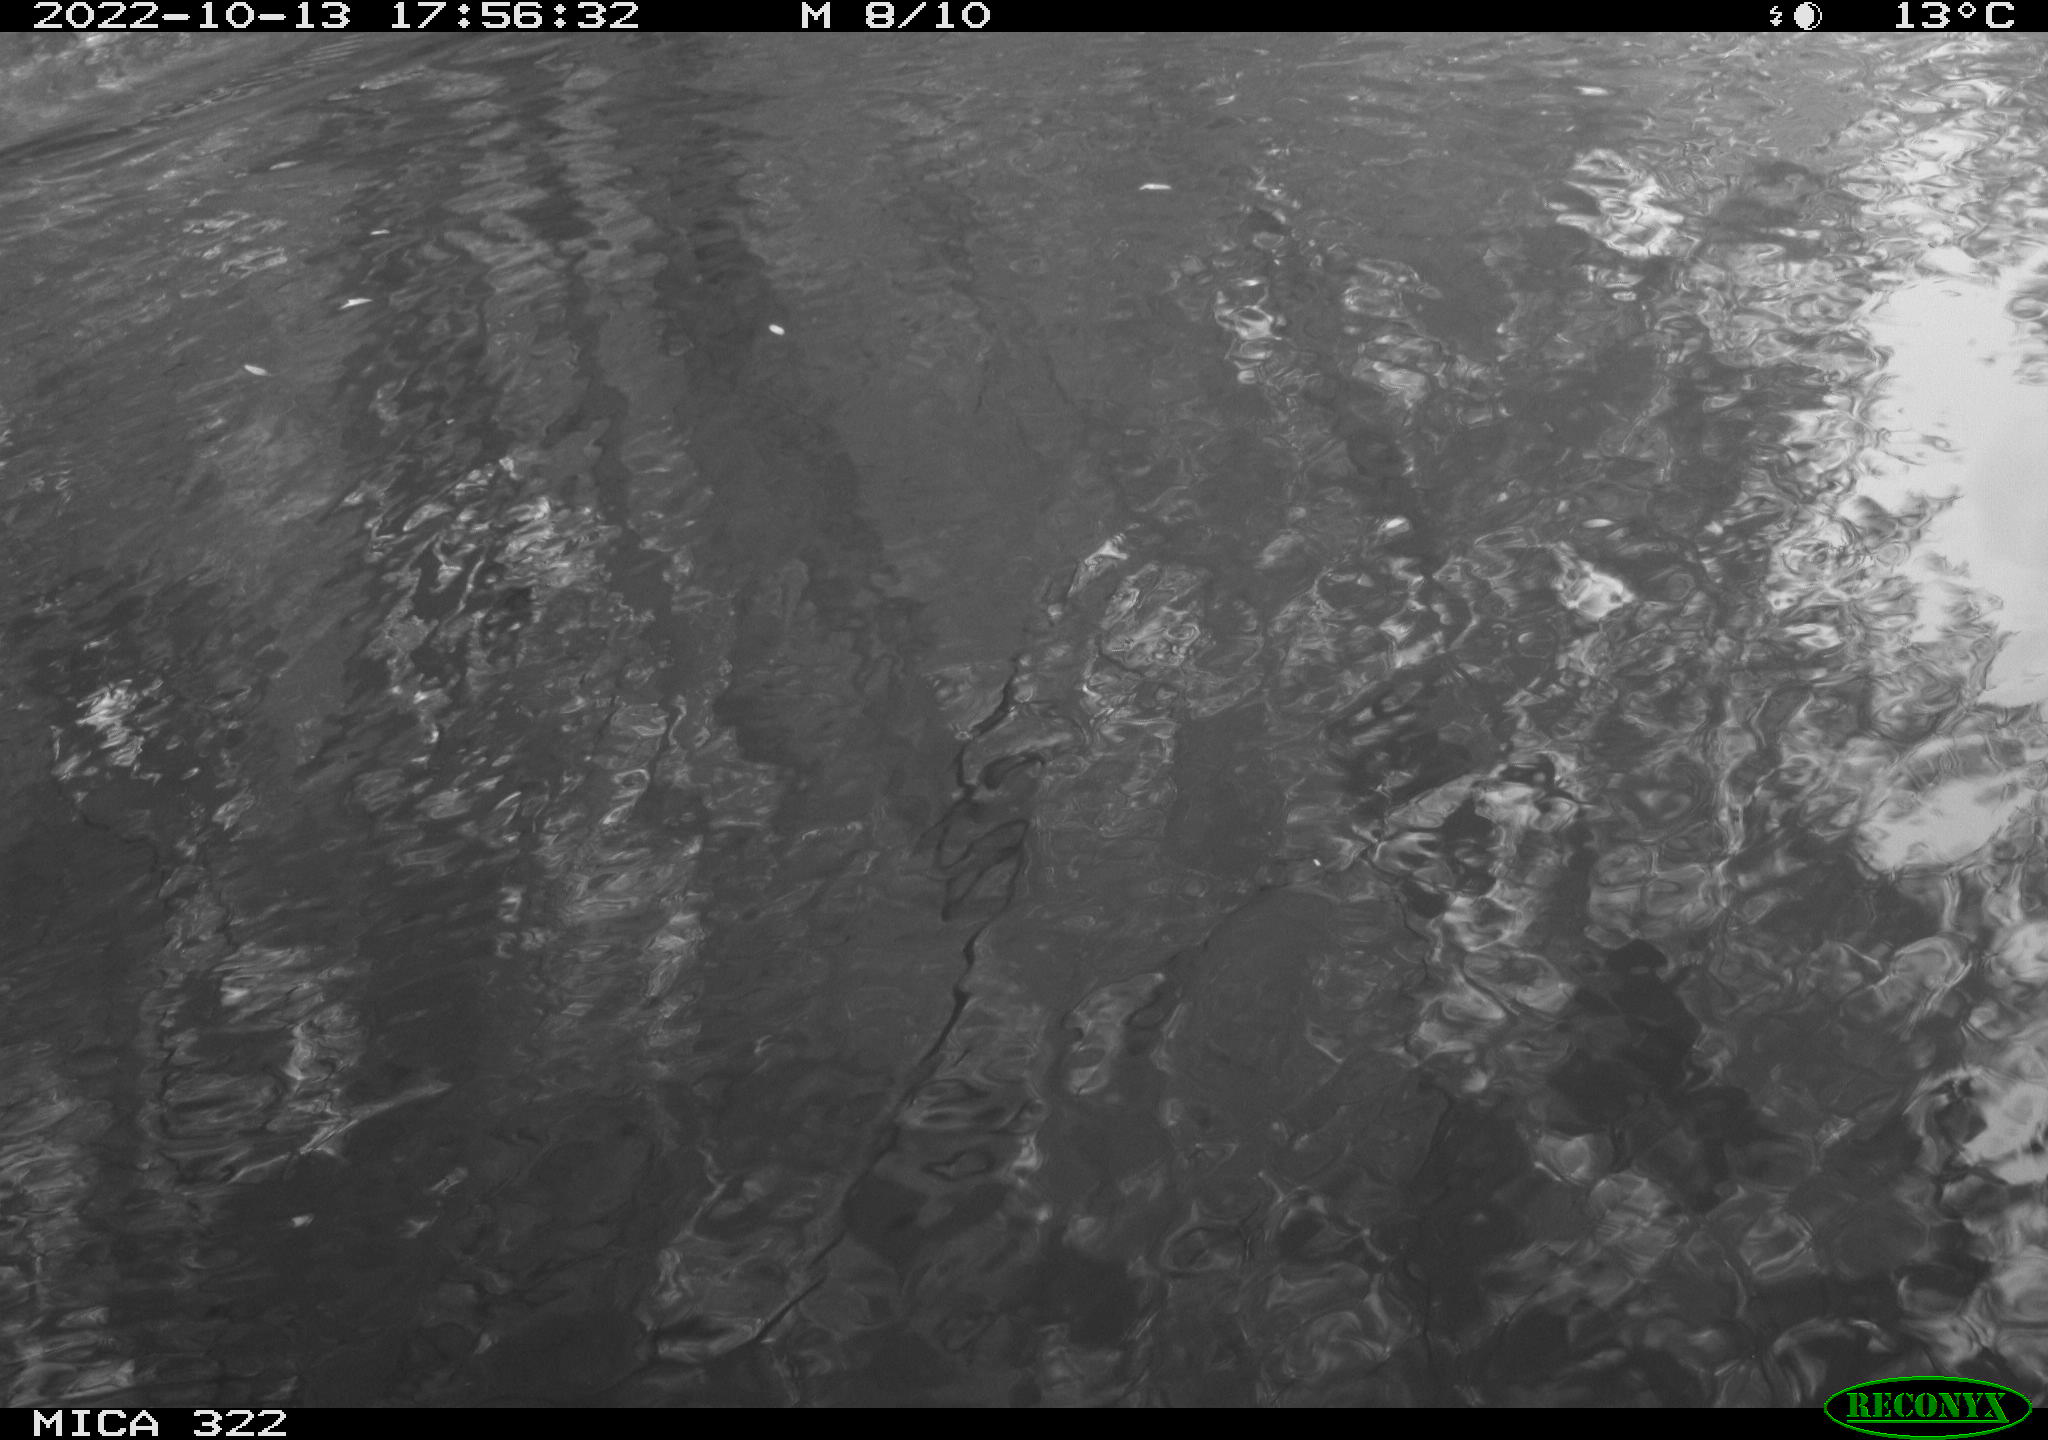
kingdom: Animalia
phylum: Chordata
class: Aves
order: Gruiformes
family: Rallidae
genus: Gallinula
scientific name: Gallinula chloropus
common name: Common moorhen
